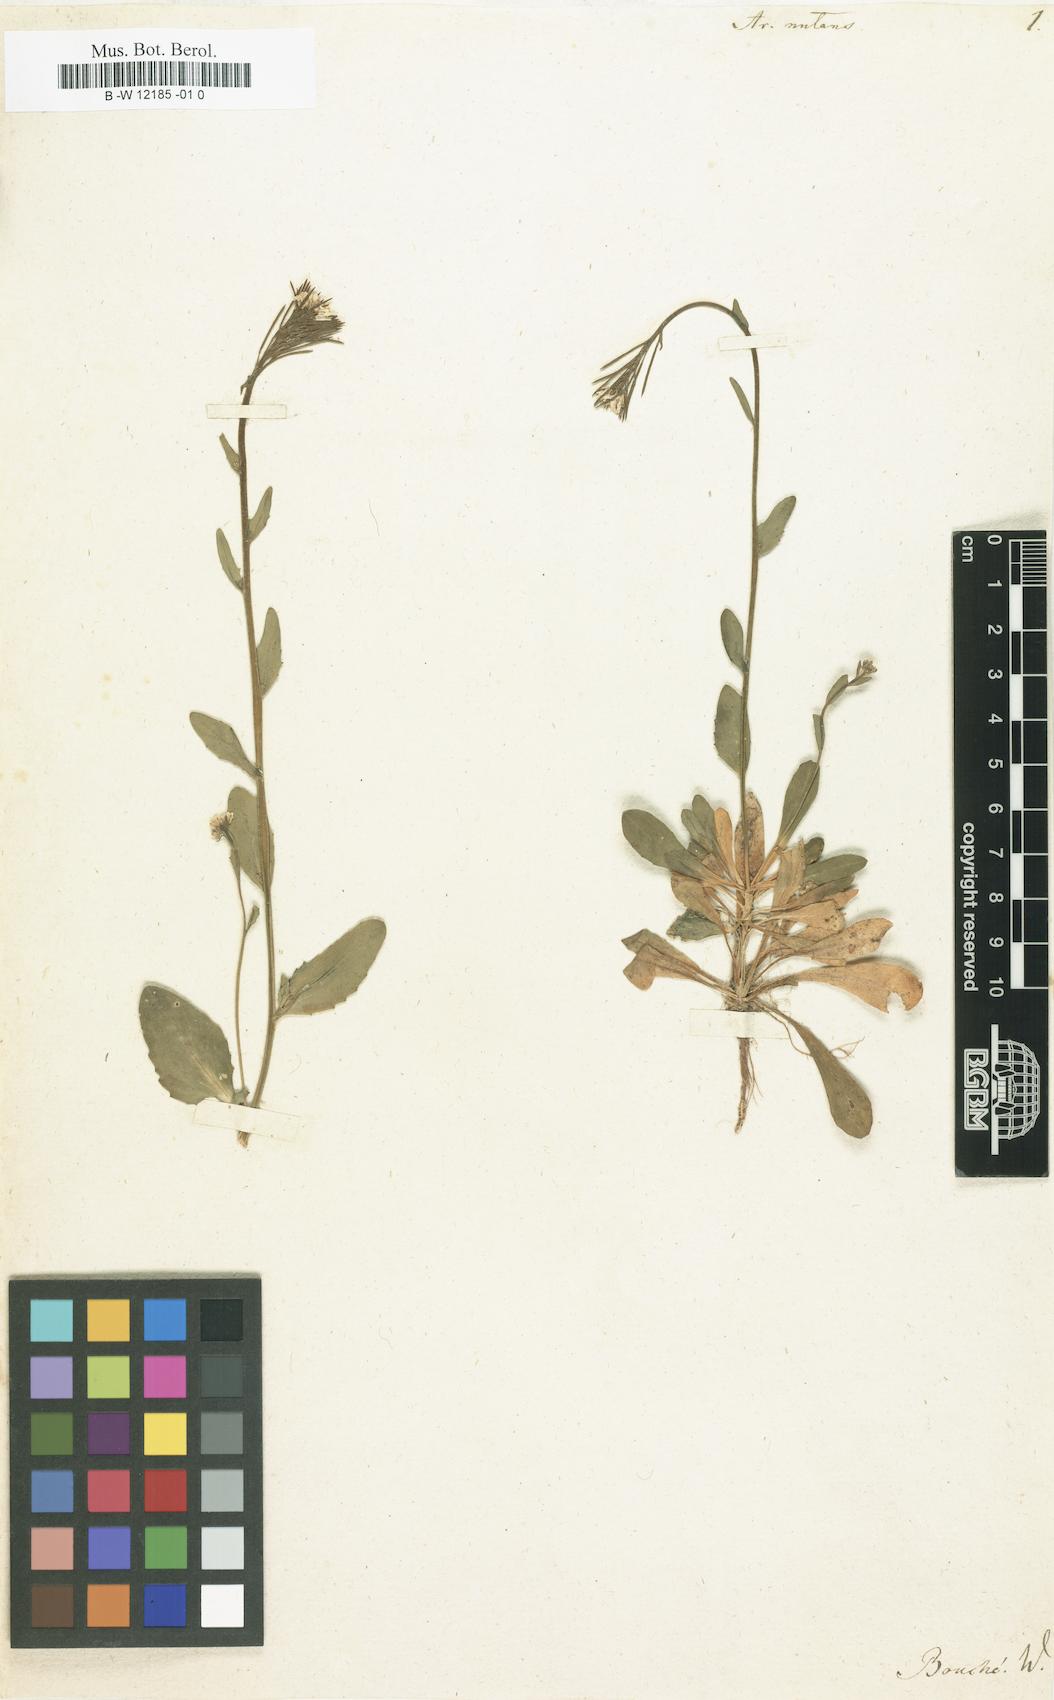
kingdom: Plantae
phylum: Tracheophyta
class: Magnoliopsida
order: Brassicales
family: Brassicaceae
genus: Arabis
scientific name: Arabis
